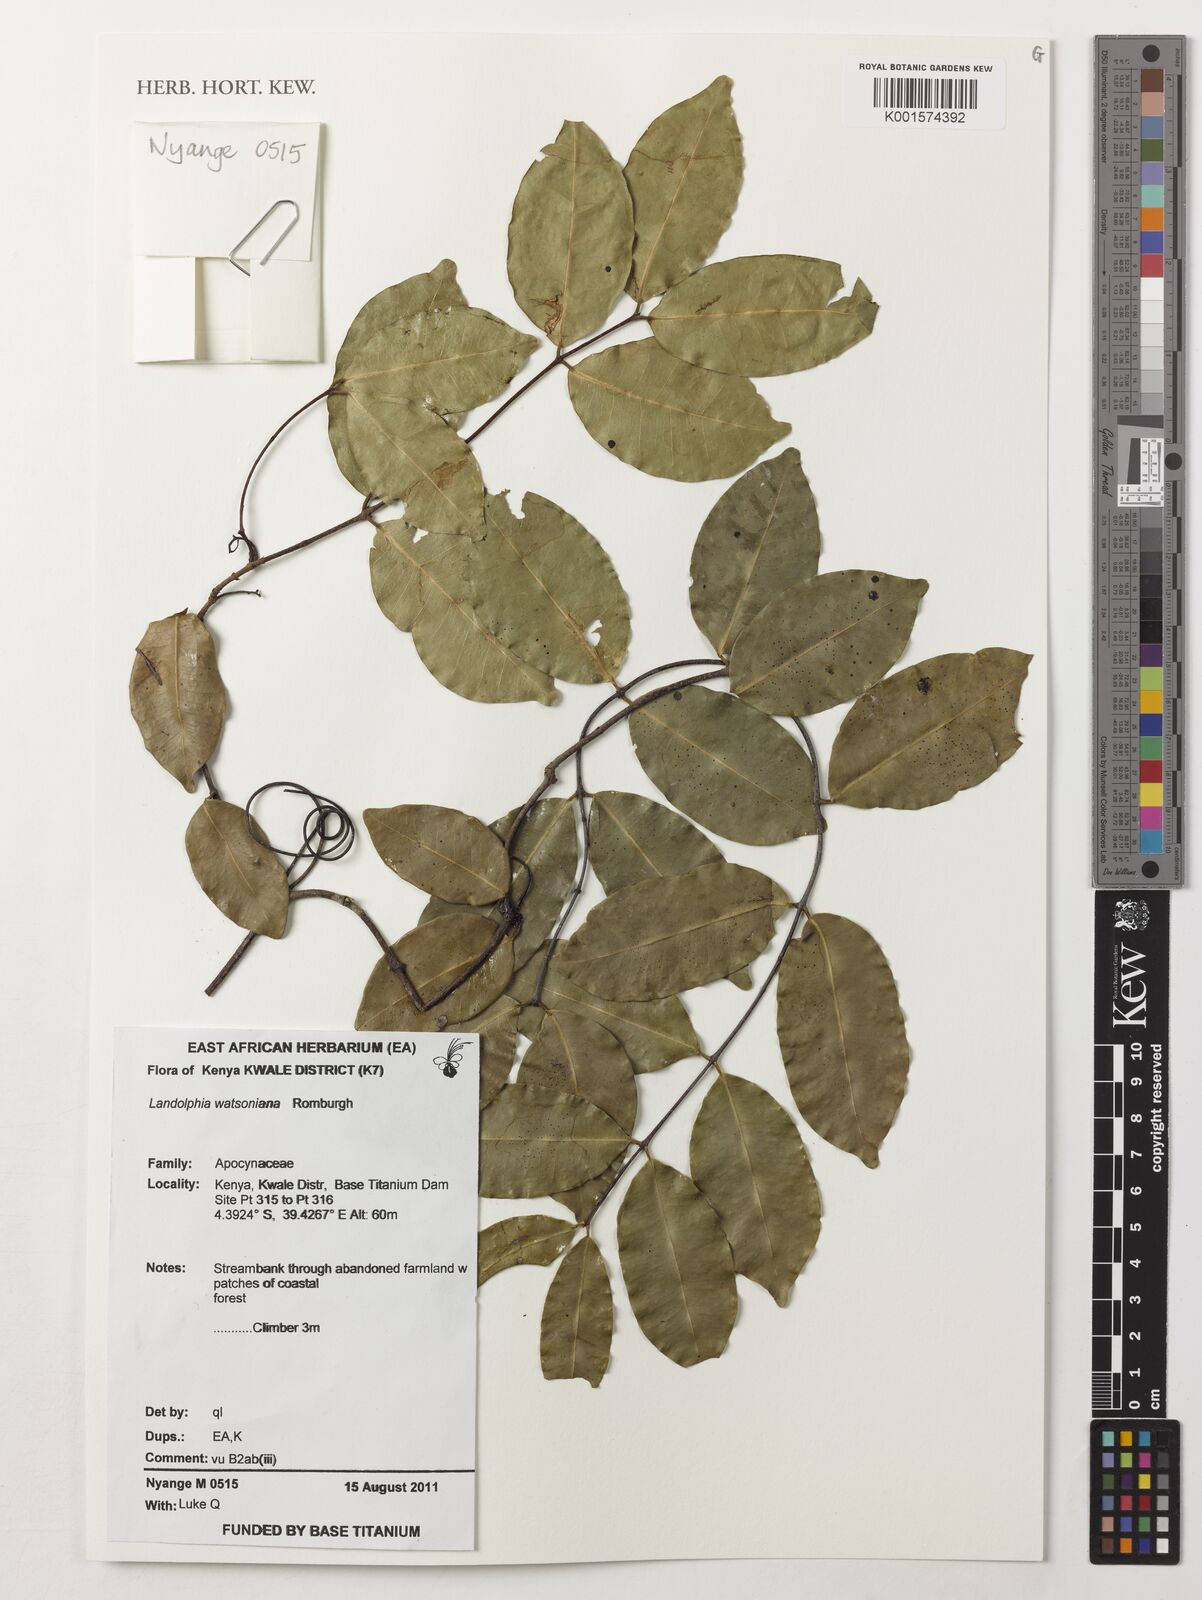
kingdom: Plantae
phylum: Tracheophyta
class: Magnoliopsida
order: Gentianales
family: Apocynaceae
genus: Landolphia
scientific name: Landolphia watsoniana
